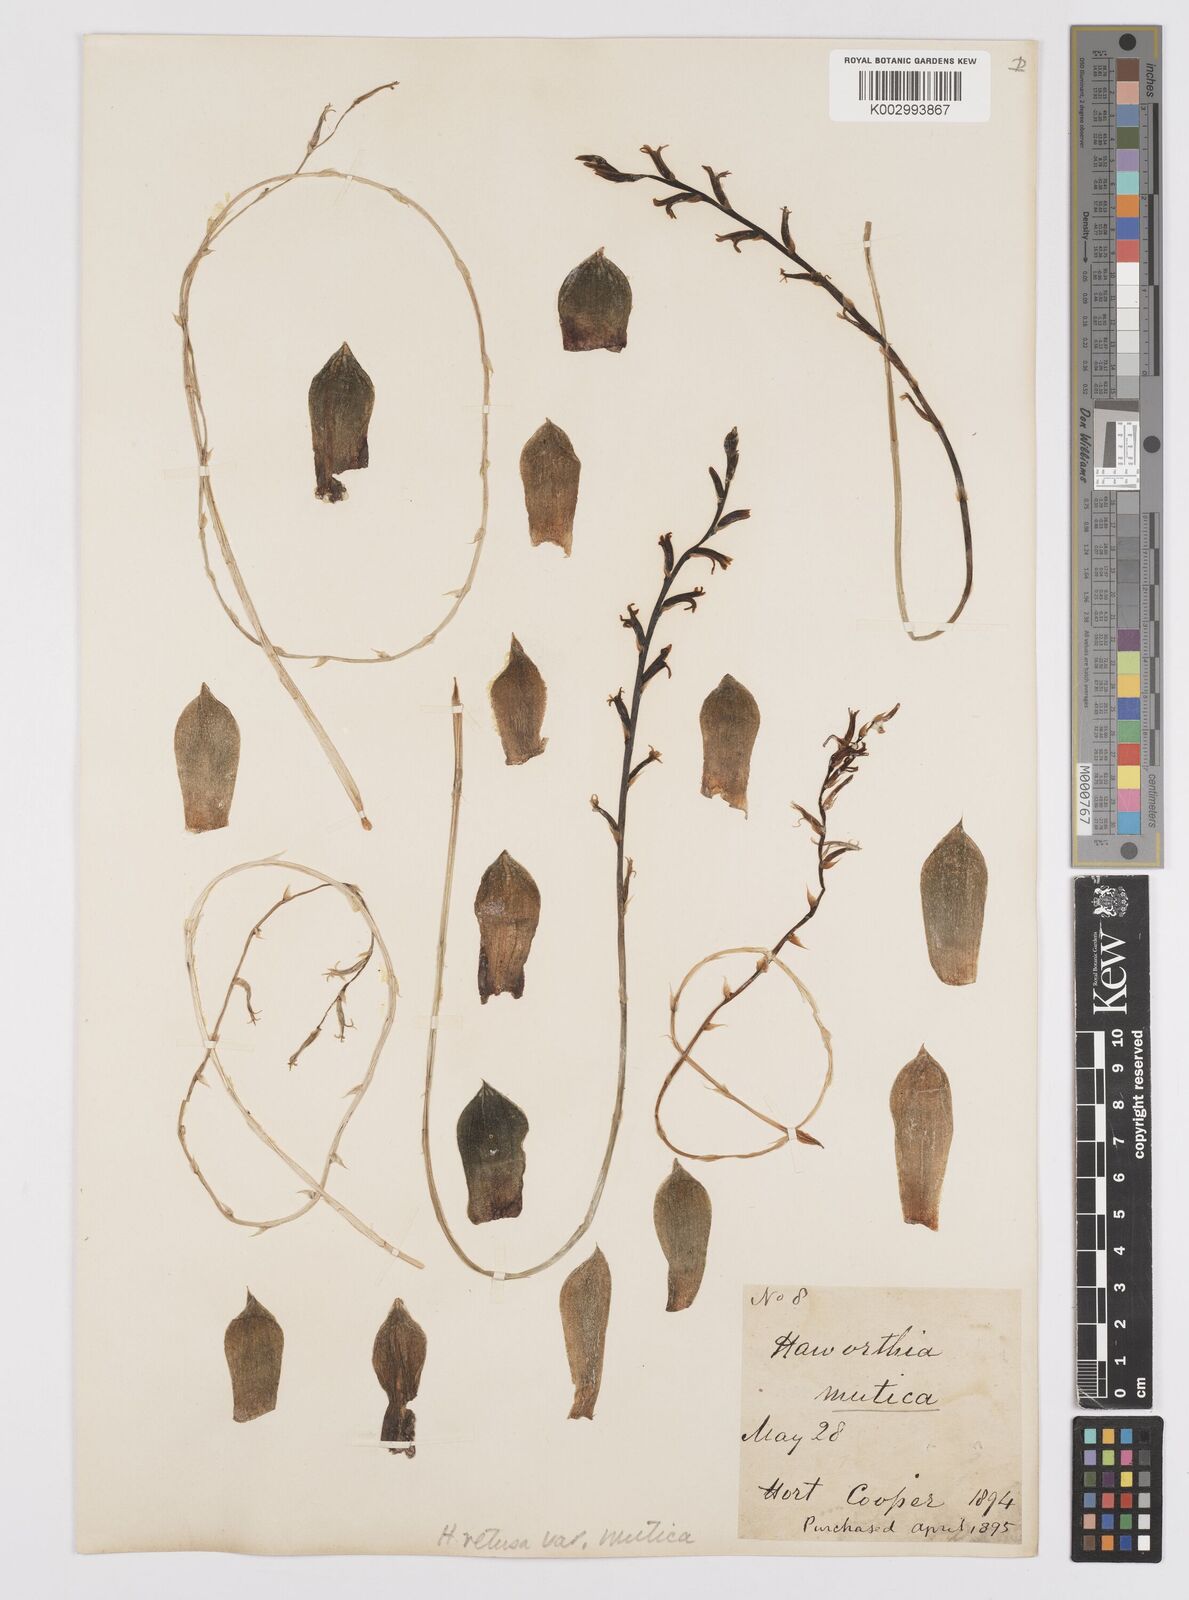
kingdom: Plantae
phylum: Tracheophyta
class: Liliopsida
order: Asparagales
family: Asphodelaceae
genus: Haworthia
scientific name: Haworthia retusa
